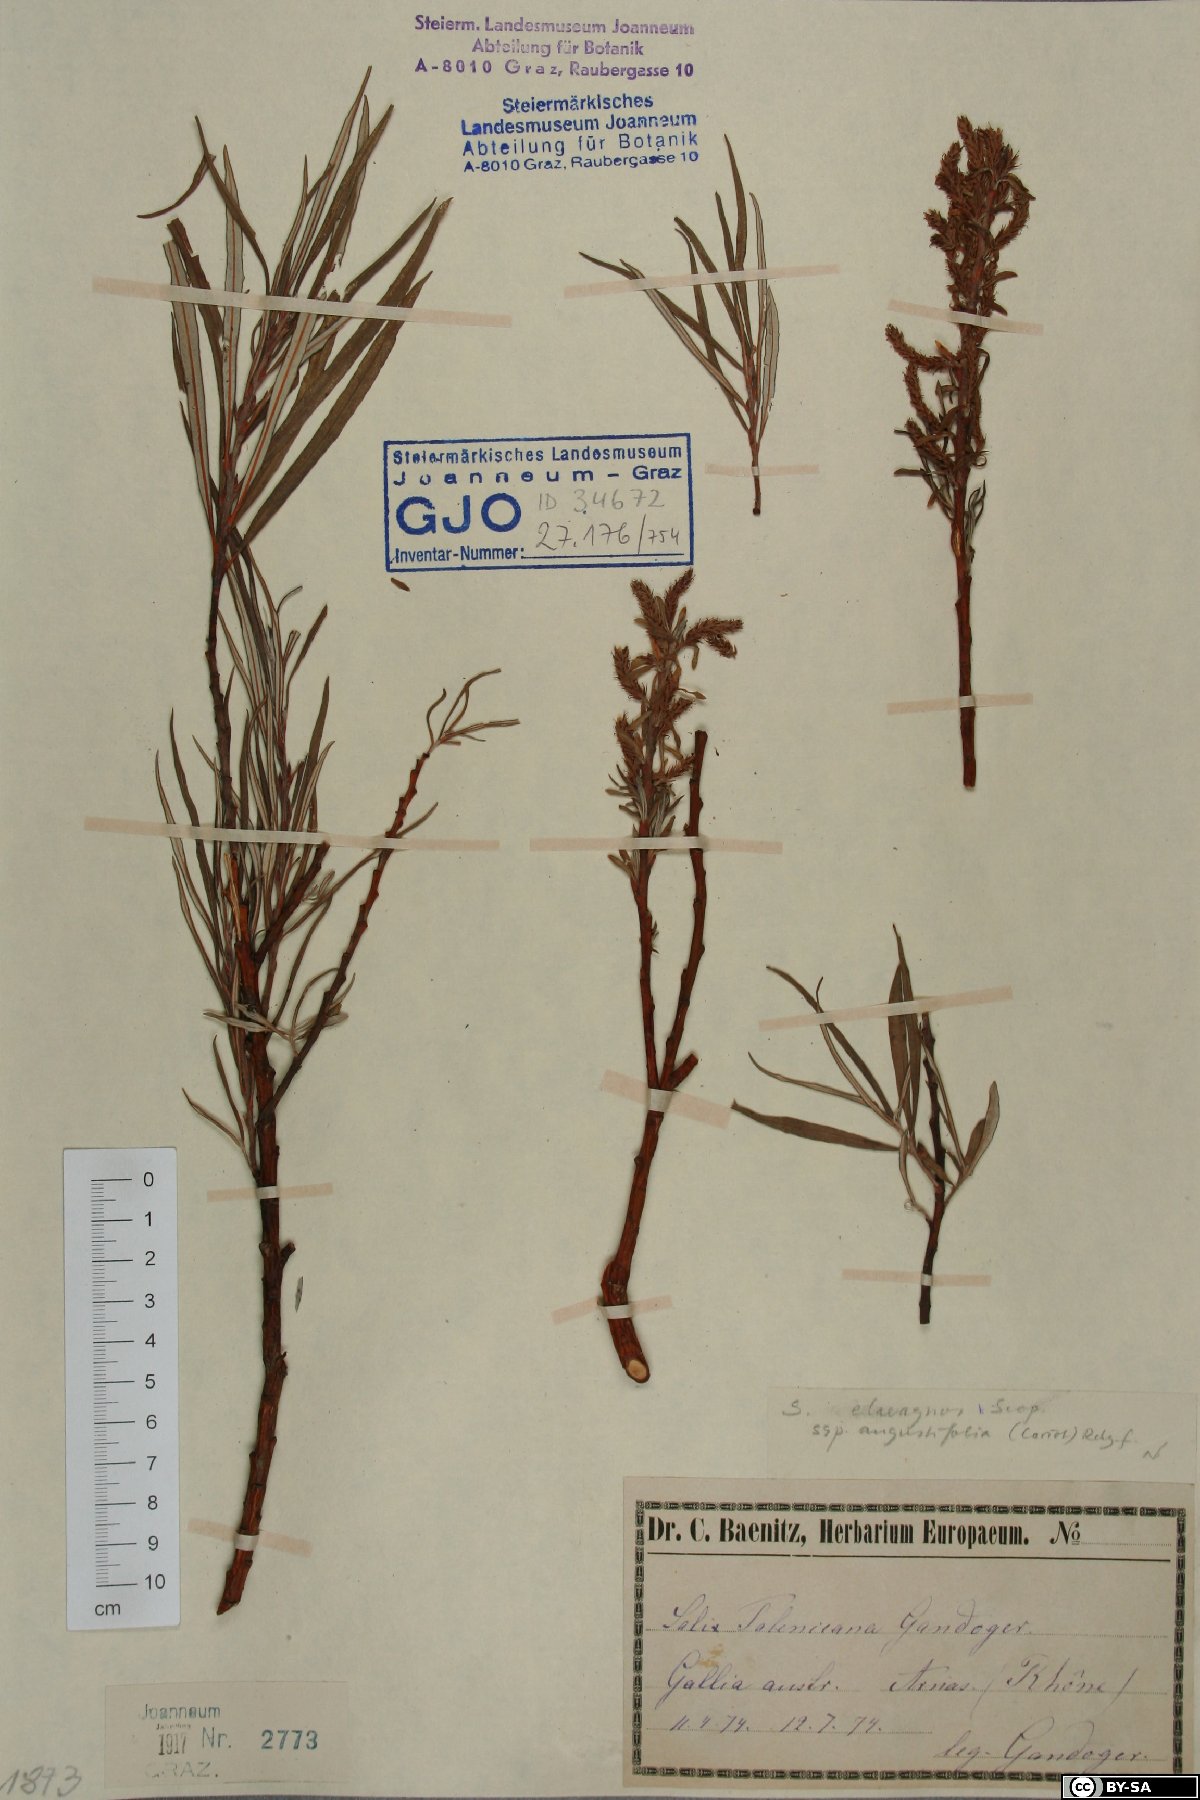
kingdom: Plantae
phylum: Tracheophyta
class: Magnoliopsida
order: Malpighiales
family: Salicaceae
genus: Salix
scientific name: Salix eleagnos
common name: Elaeagnus willow
